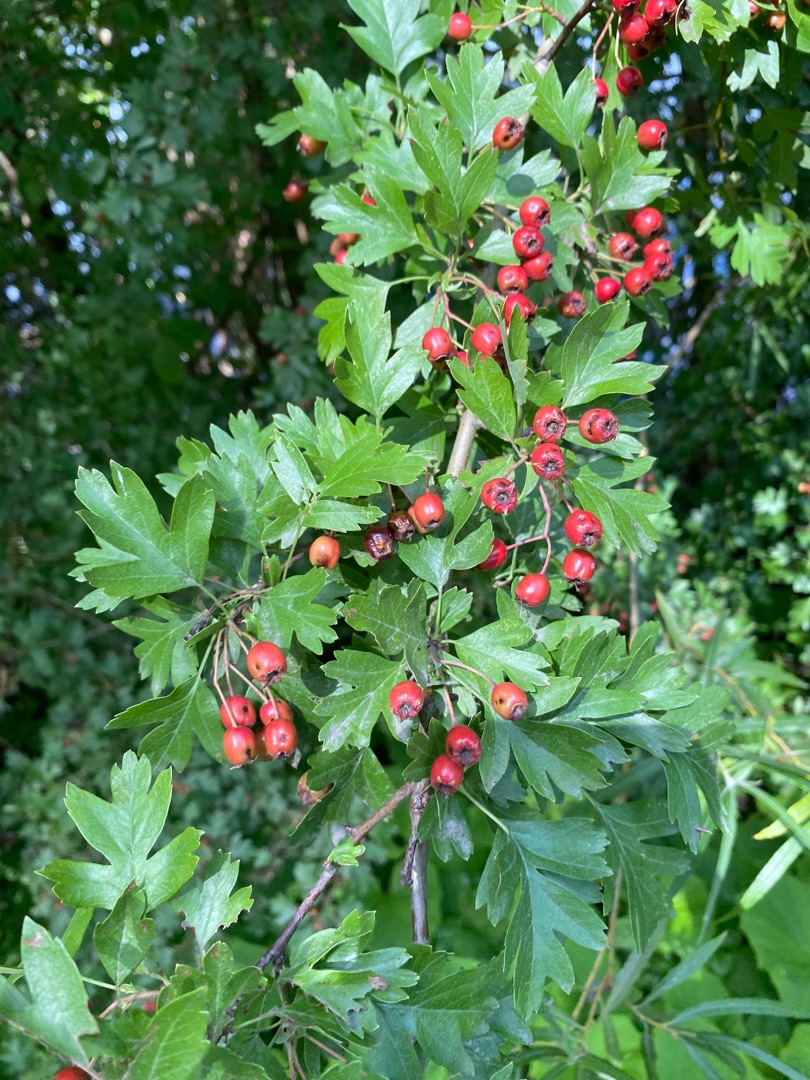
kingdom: Plantae
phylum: Tracheophyta
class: Magnoliopsida
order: Rosales
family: Rosaceae
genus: Crataegus
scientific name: Crataegus monogyna
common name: Engriflet hvidtjørn
